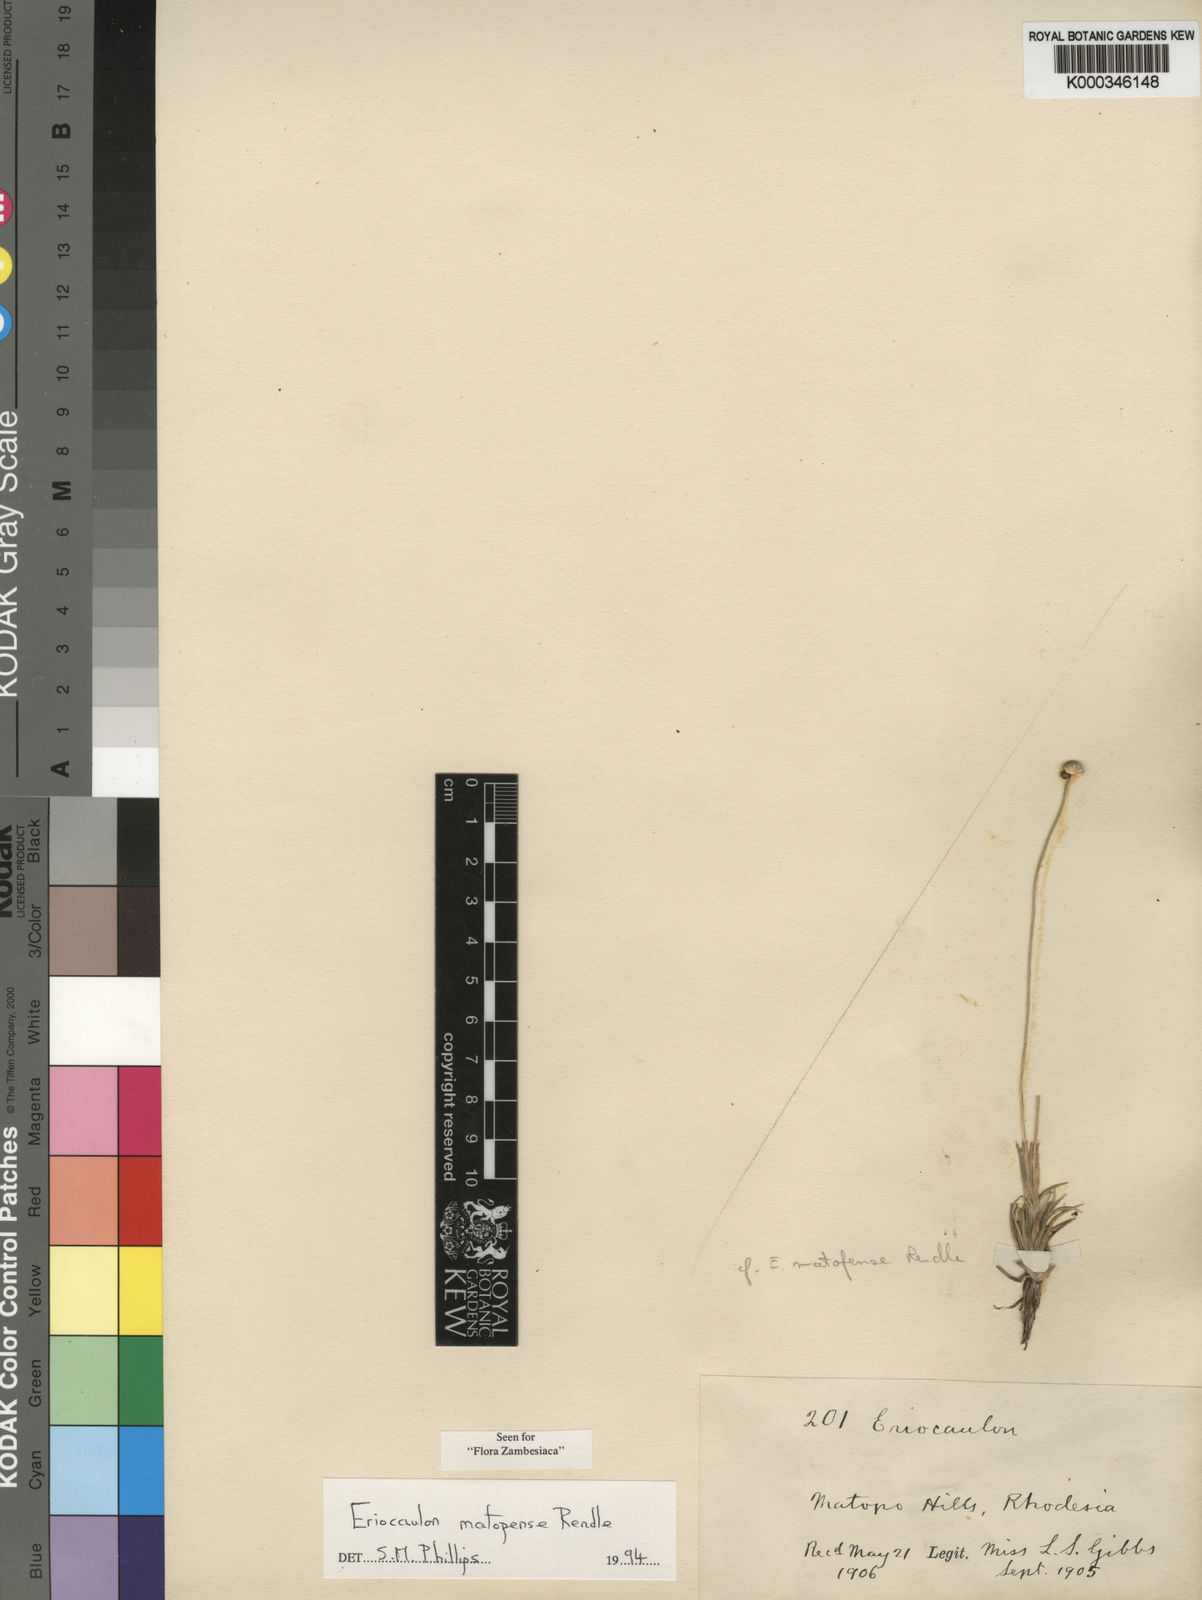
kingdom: Plantae
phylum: Tracheophyta
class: Liliopsida
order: Poales
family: Eriocaulaceae
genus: Eriocaulon
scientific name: Eriocaulon matopense
